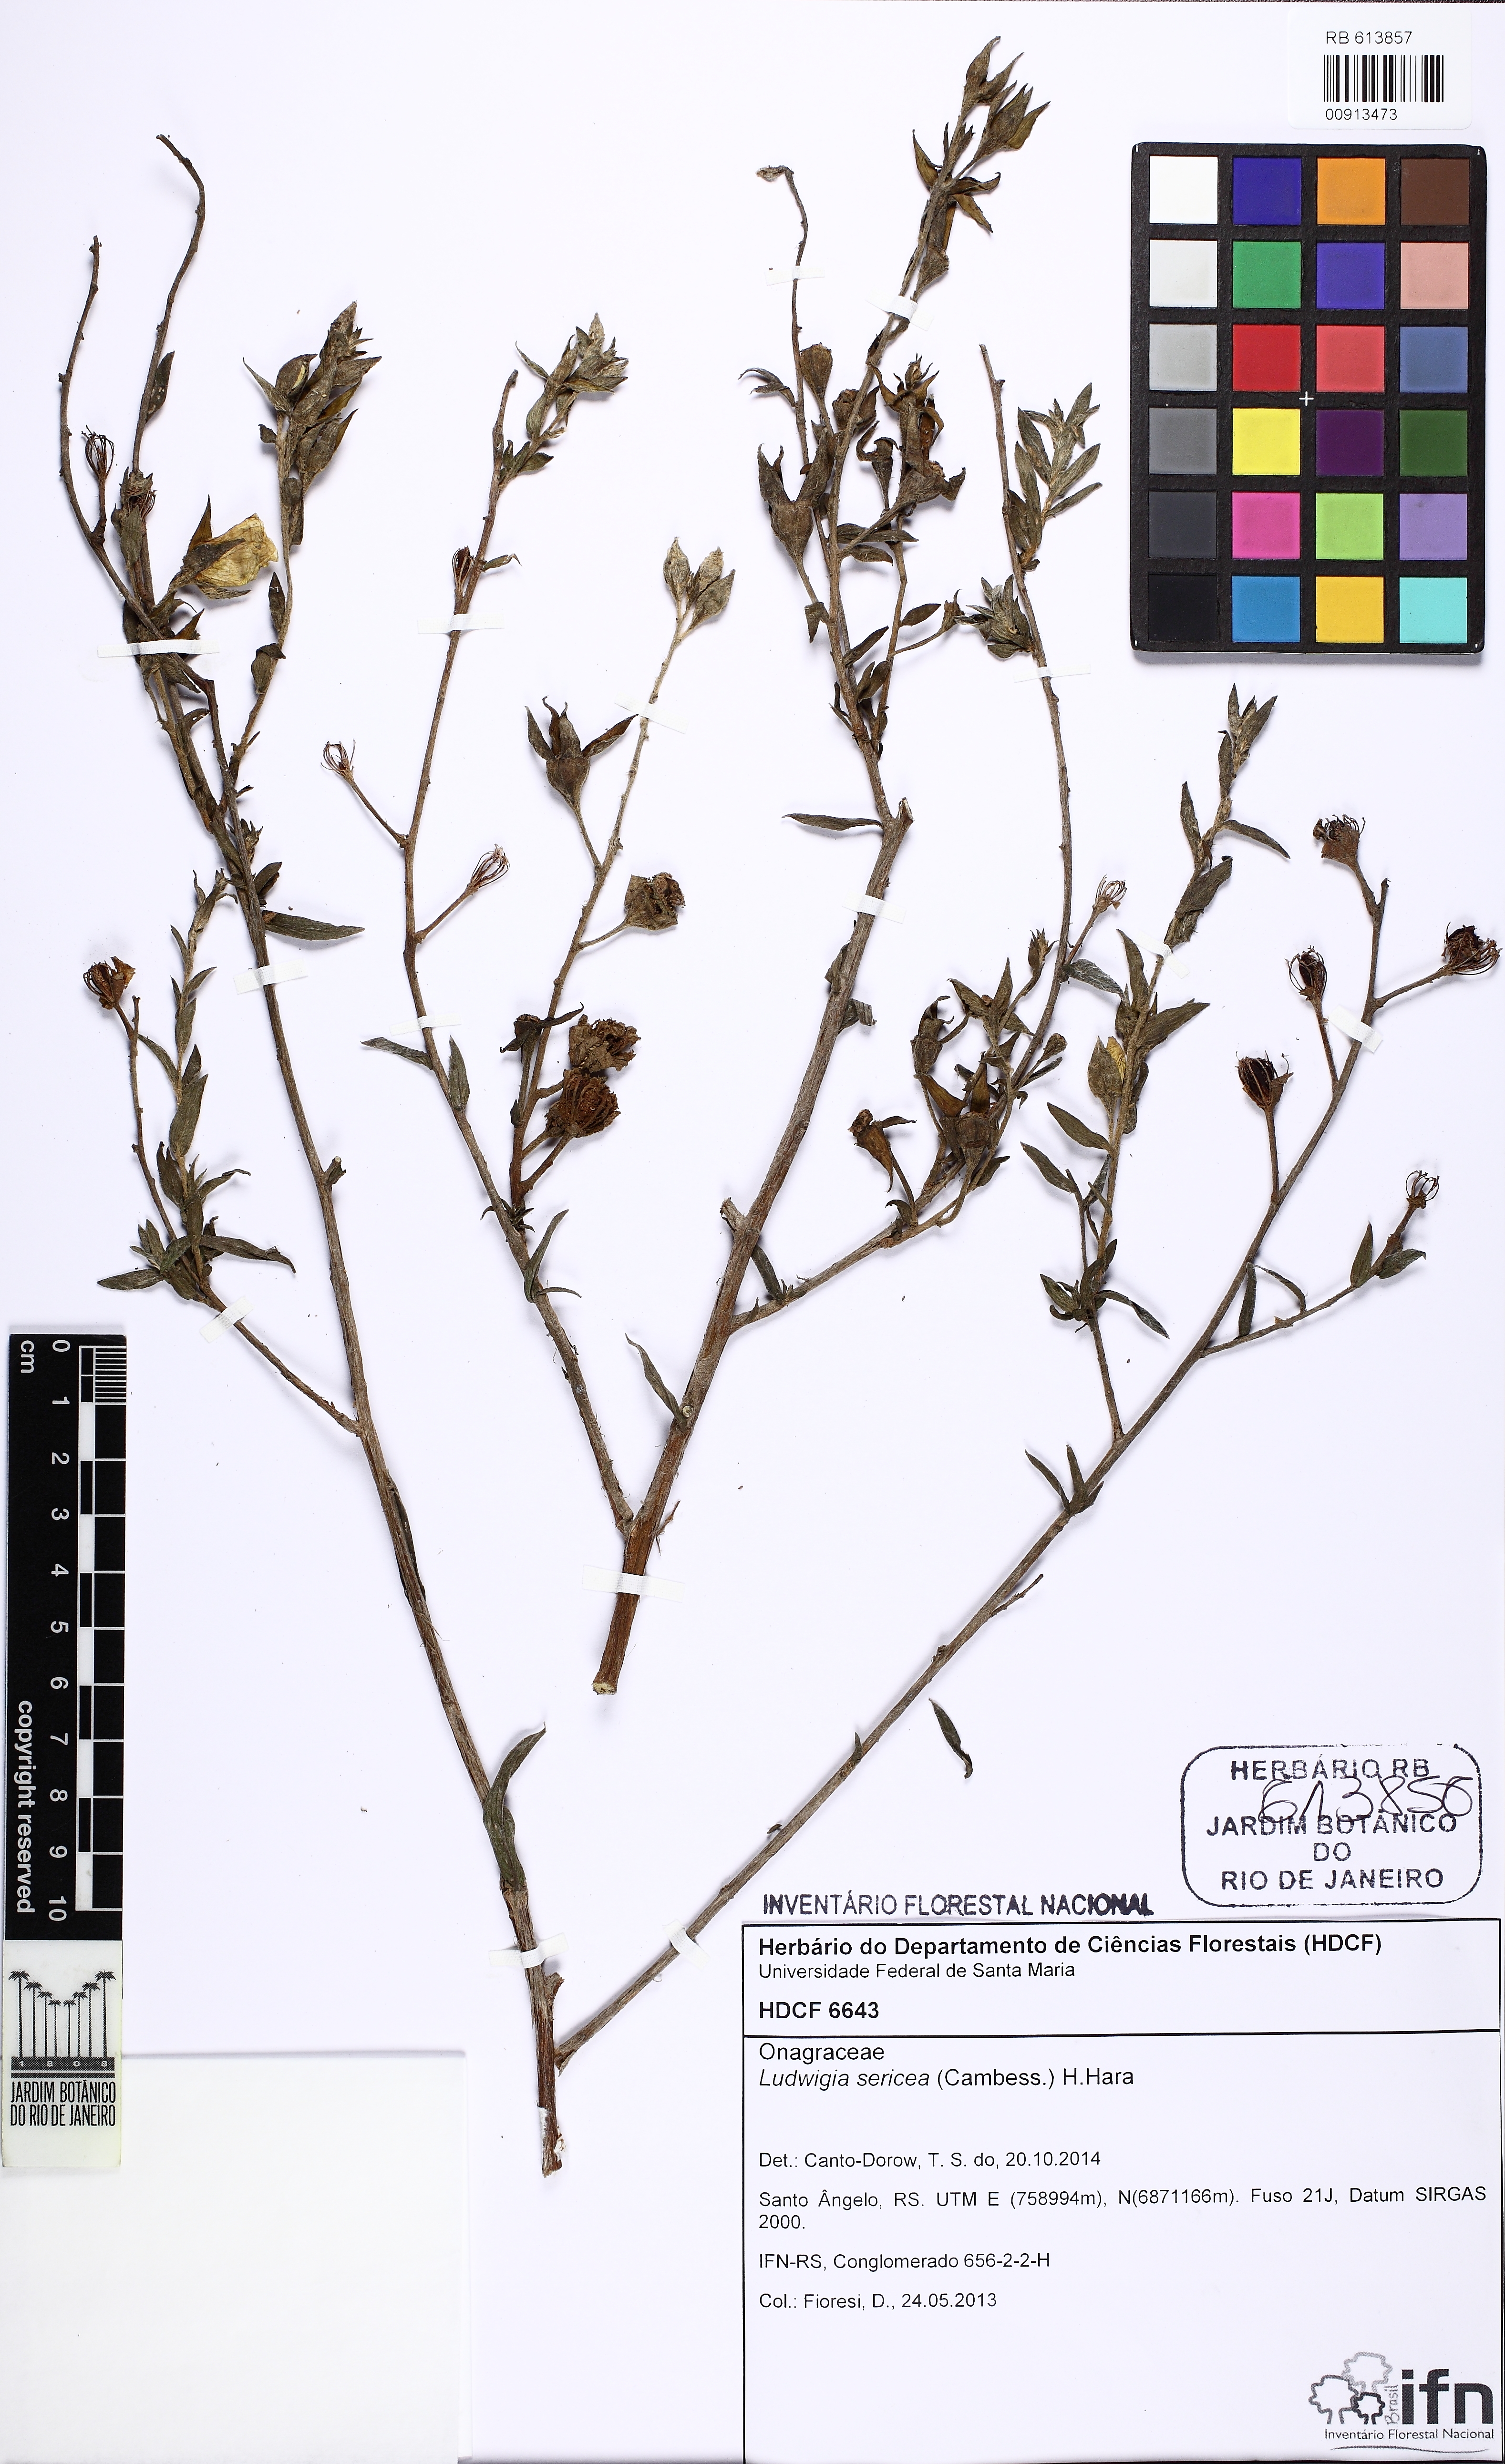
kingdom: Plantae
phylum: Tracheophyta
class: Magnoliopsida
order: Myrtales
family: Onagraceae
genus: Ludwigia
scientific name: Ludwigia sericea
